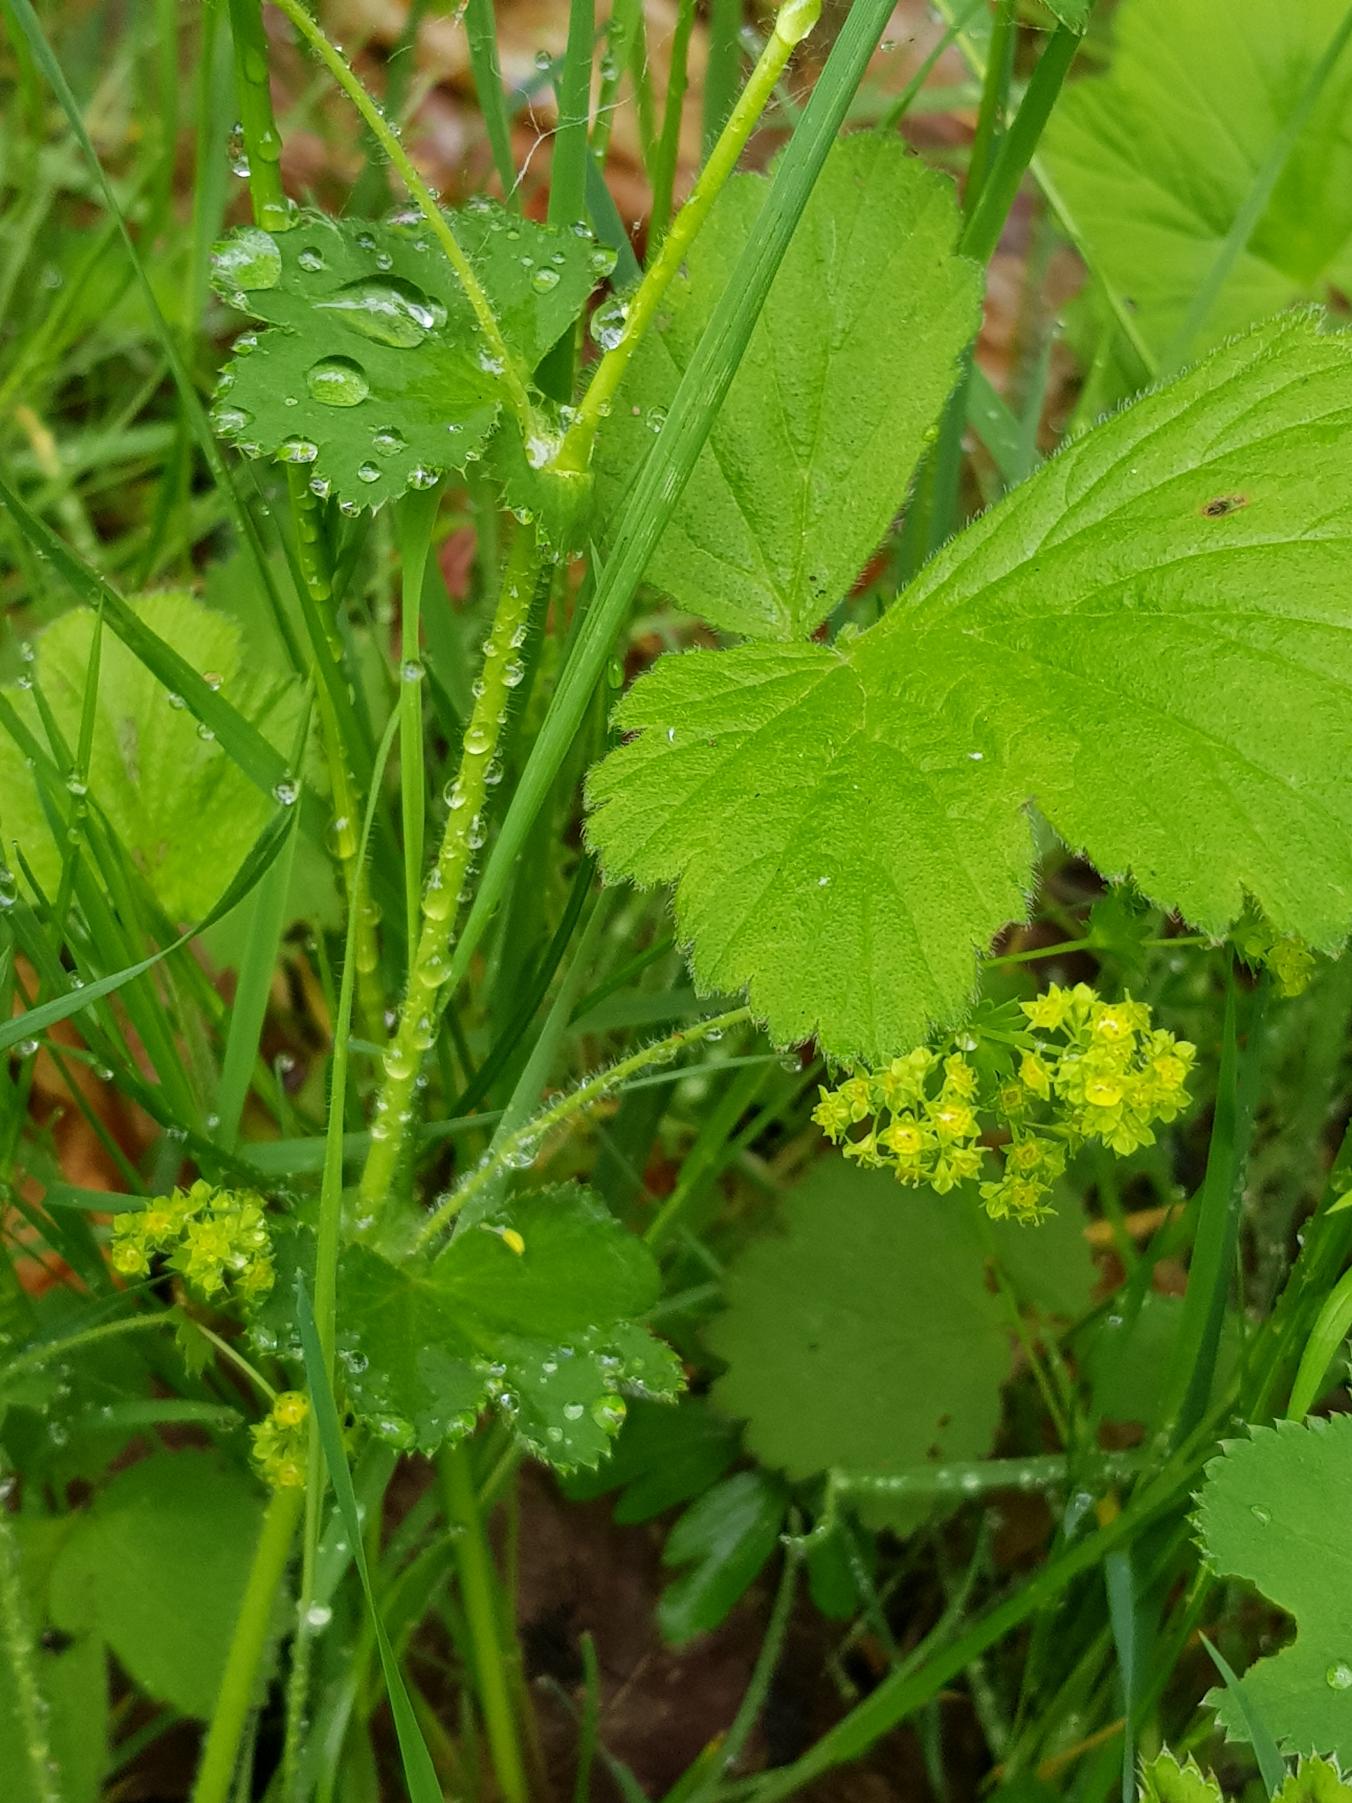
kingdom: Plantae
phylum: Tracheophyta
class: Magnoliopsida
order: Rosales
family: Rosaceae
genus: Alchemilla
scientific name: Alchemilla xanthochlora
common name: Gulgrøn løvefod
